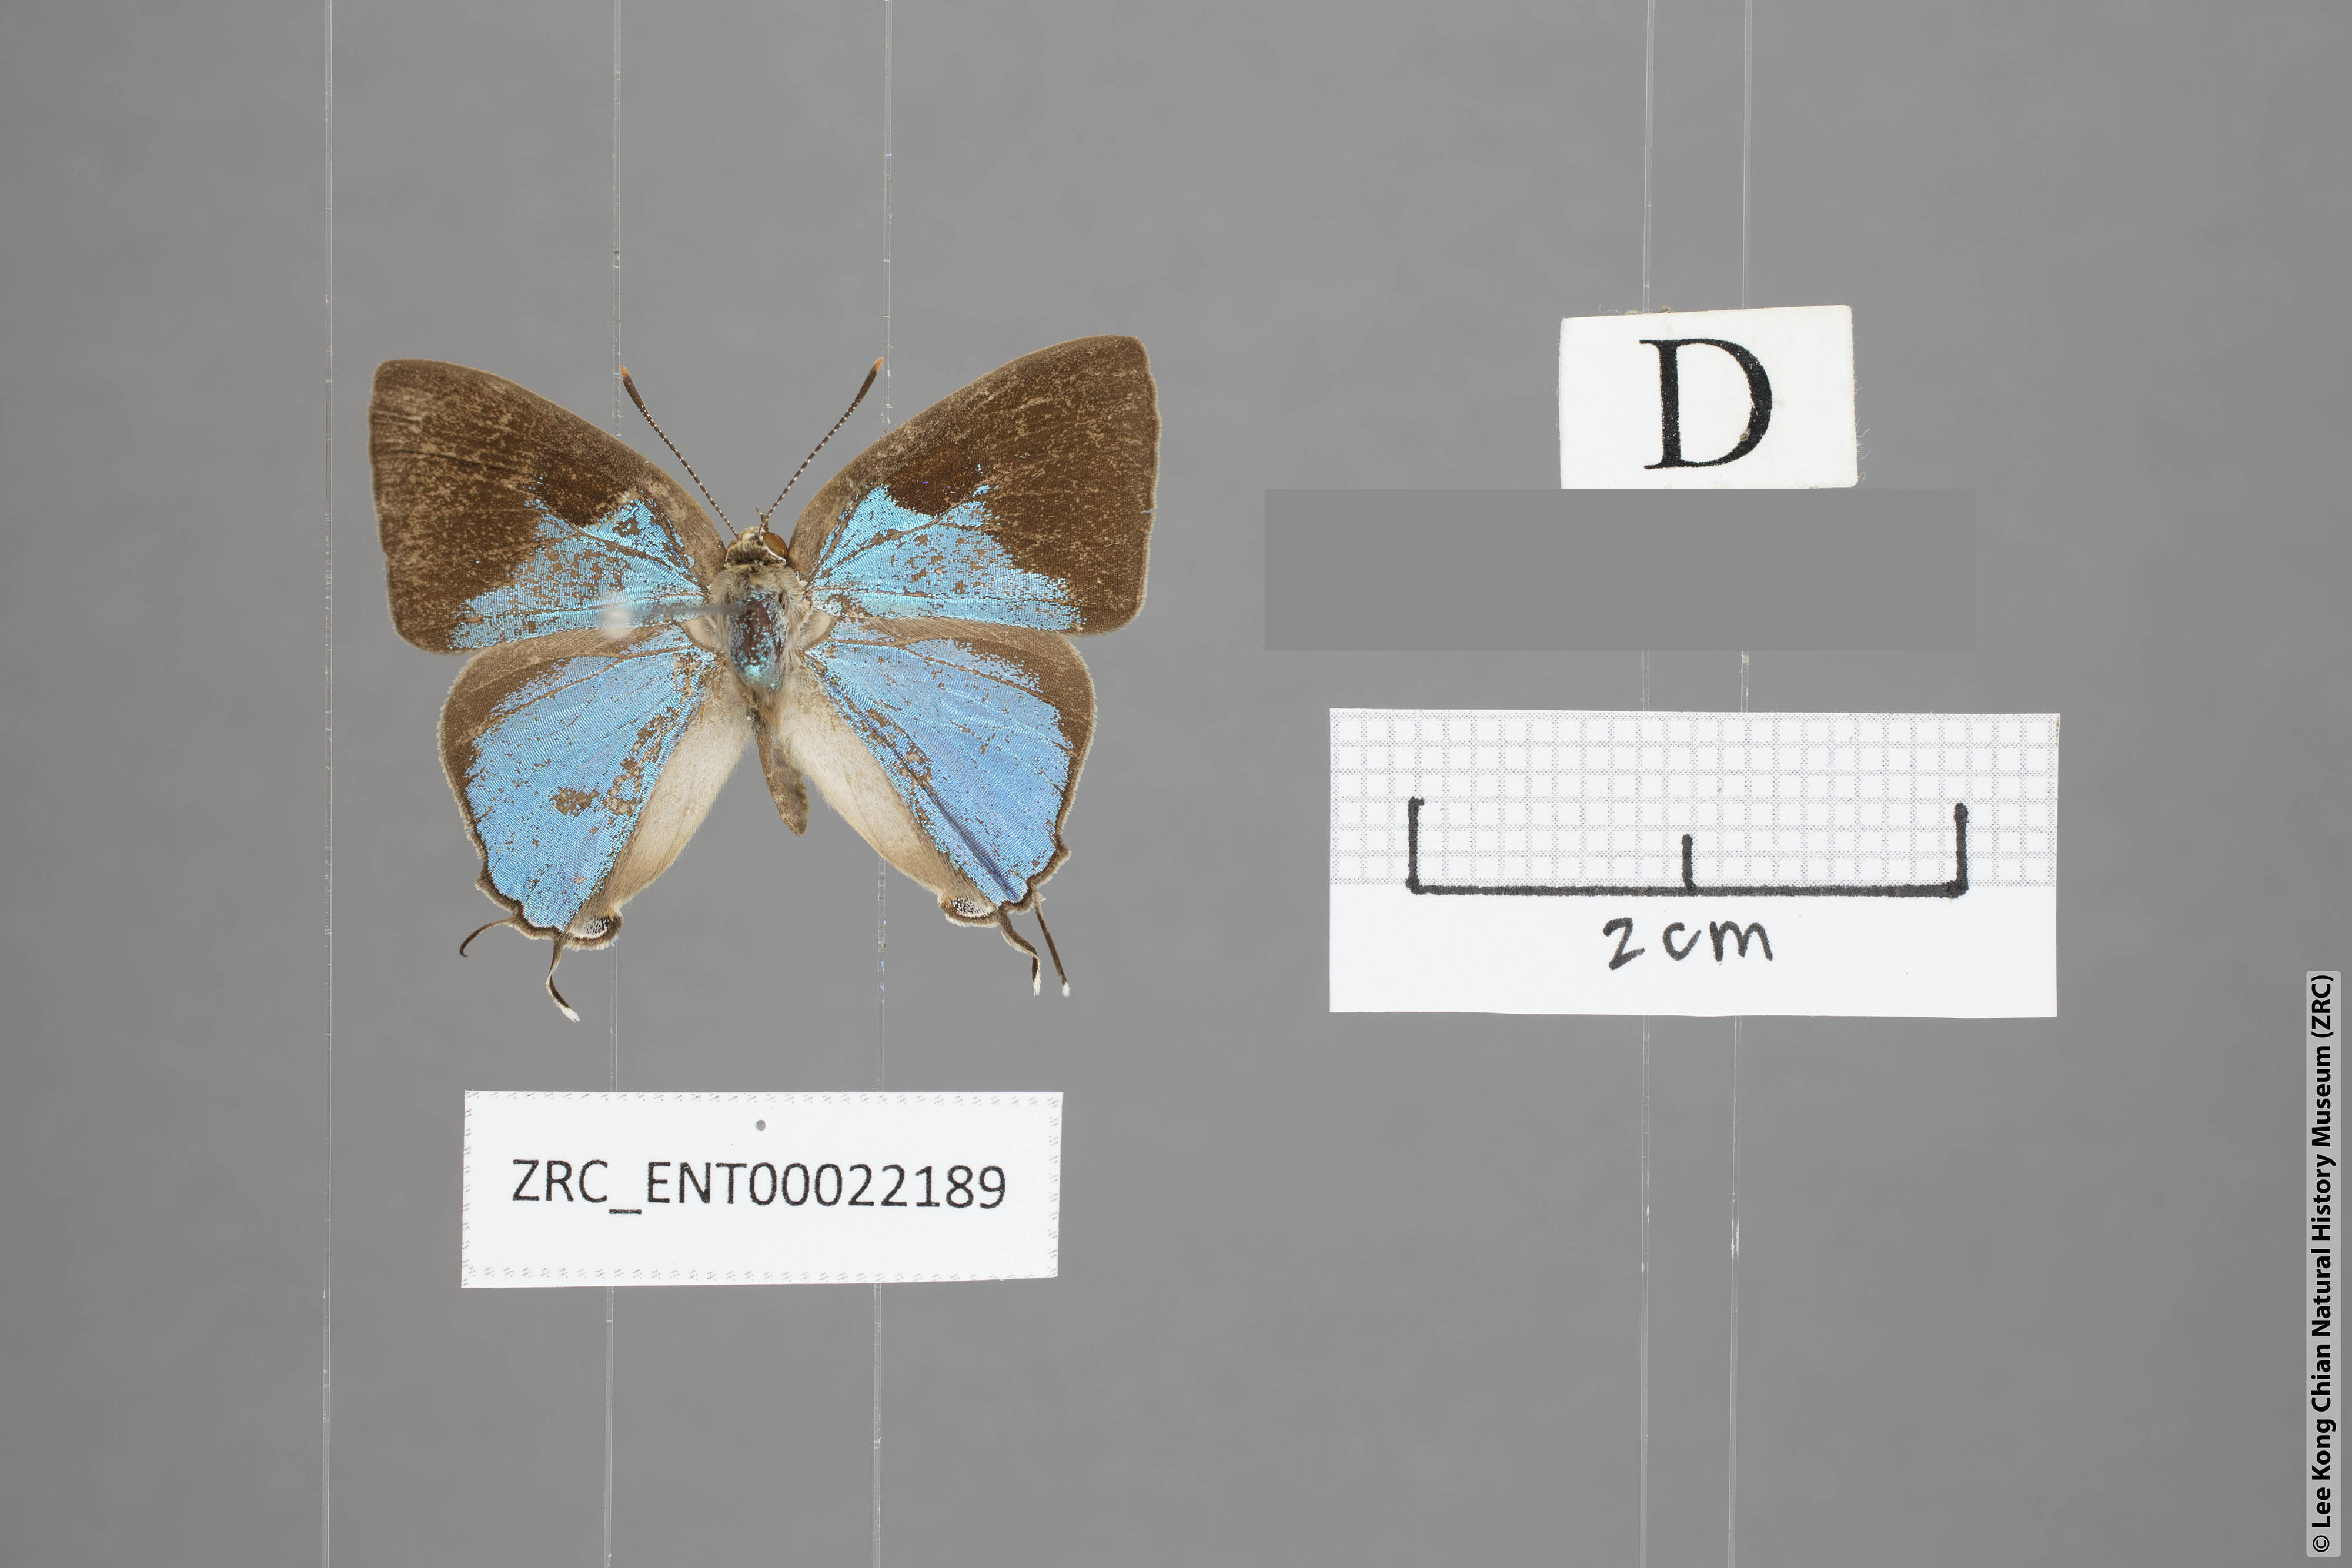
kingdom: Animalia
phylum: Arthropoda
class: Insecta
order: Lepidoptera
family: Lycaenidae
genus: Tajuria
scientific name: Tajuria dominus
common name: Influent royal
